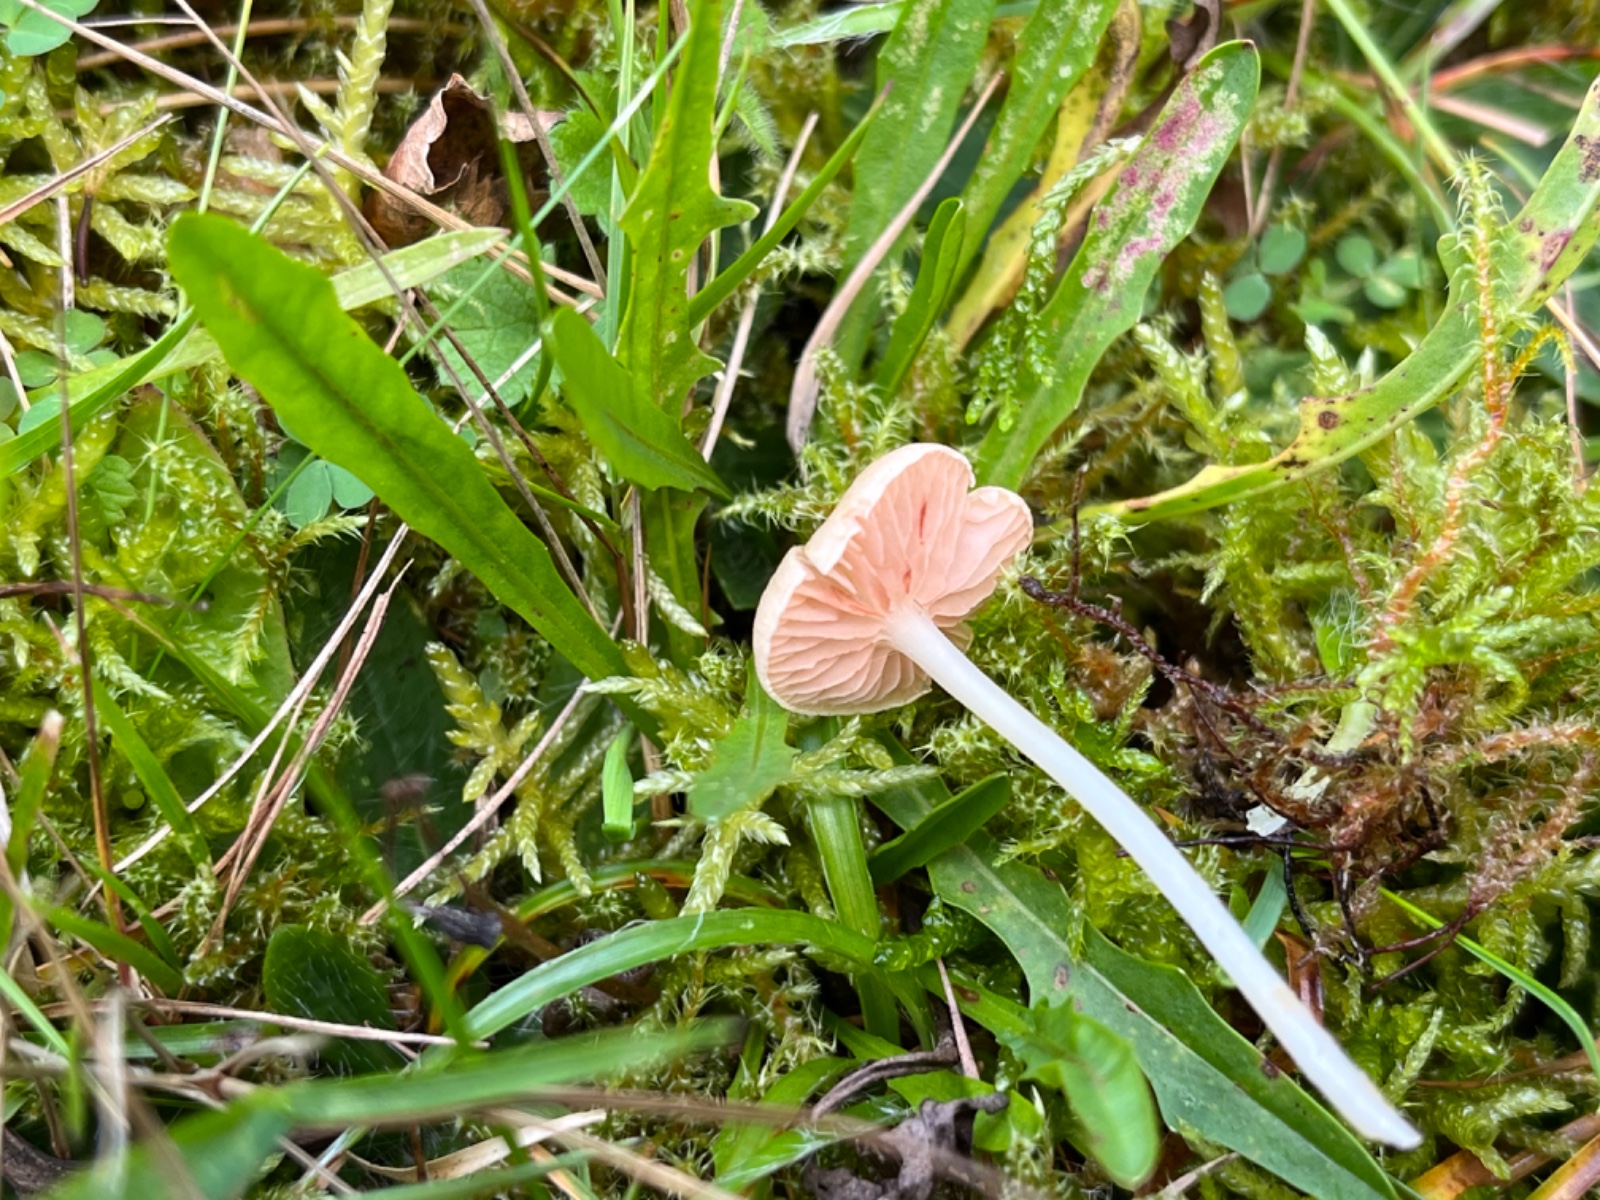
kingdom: Fungi
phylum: Basidiomycota
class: Agaricomycetes
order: Agaricales
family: Entolomataceae
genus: Entoloma
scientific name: Entoloma sericellum
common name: silkehvid rødblad
